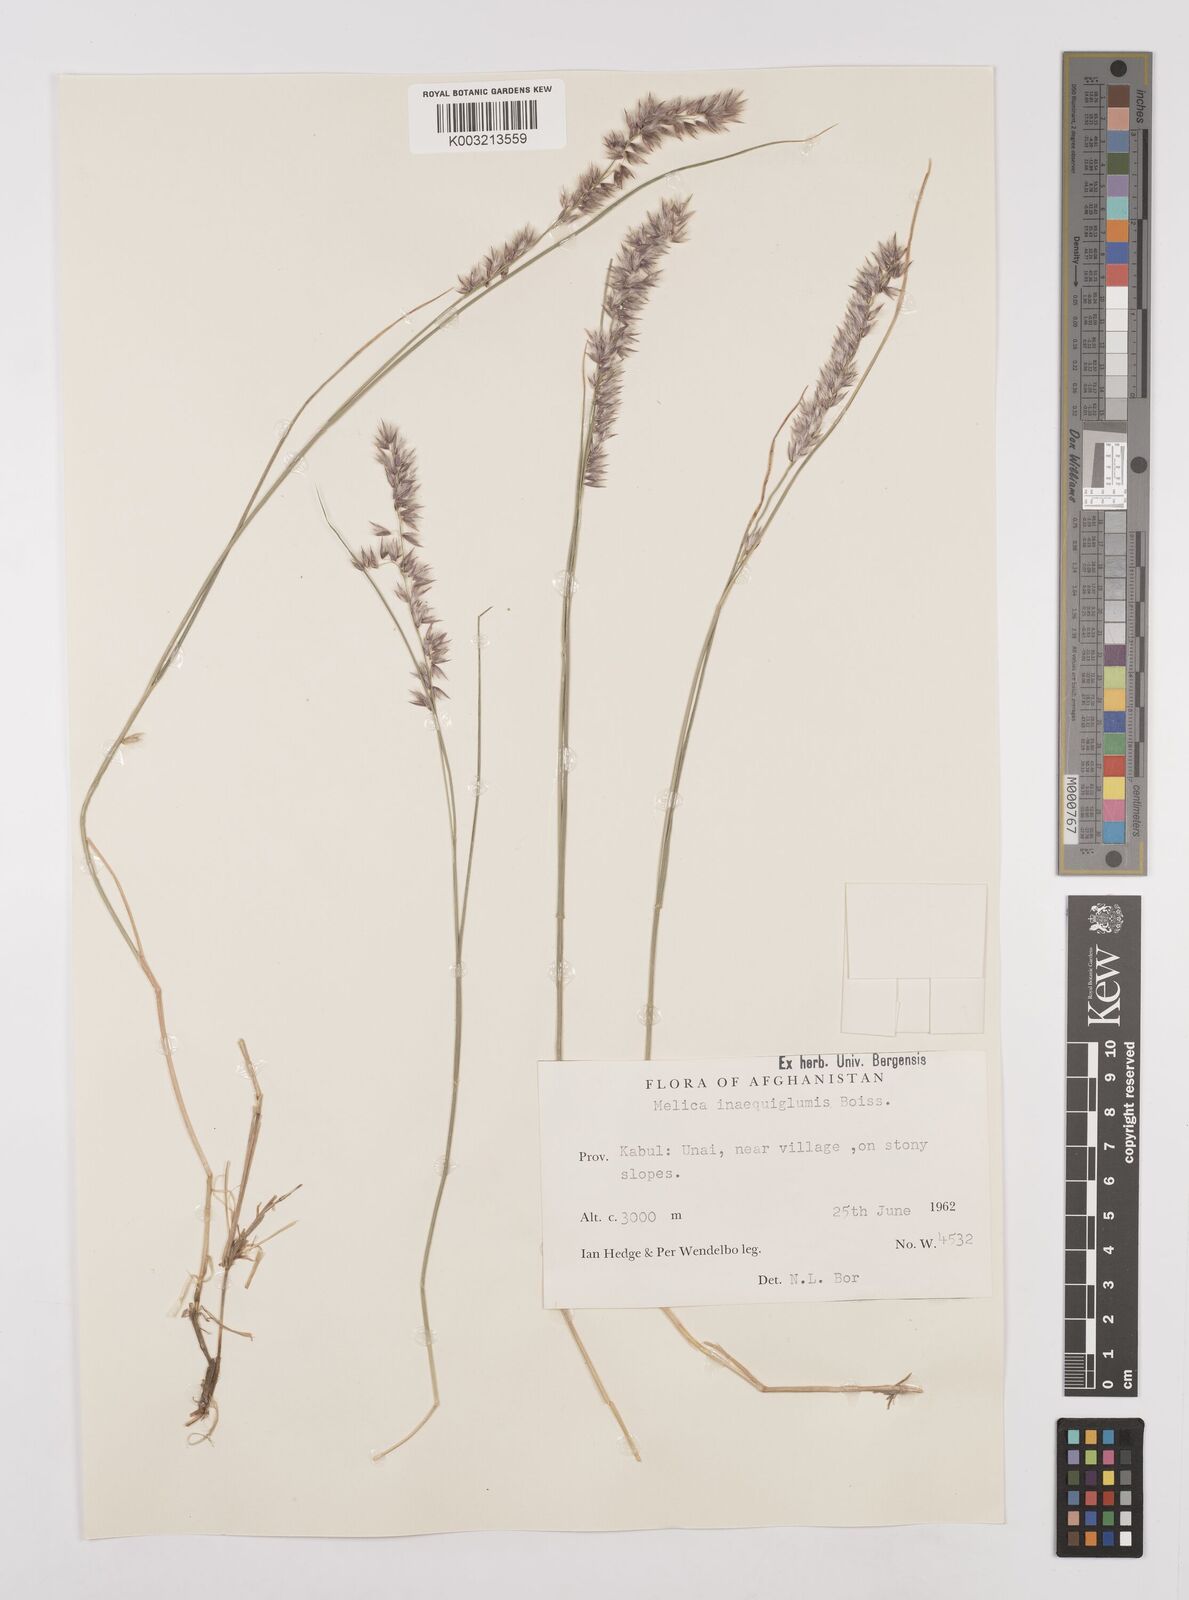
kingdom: Plantae
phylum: Tracheophyta
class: Liliopsida
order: Poales
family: Poaceae
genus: Melica
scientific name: Melica persica
